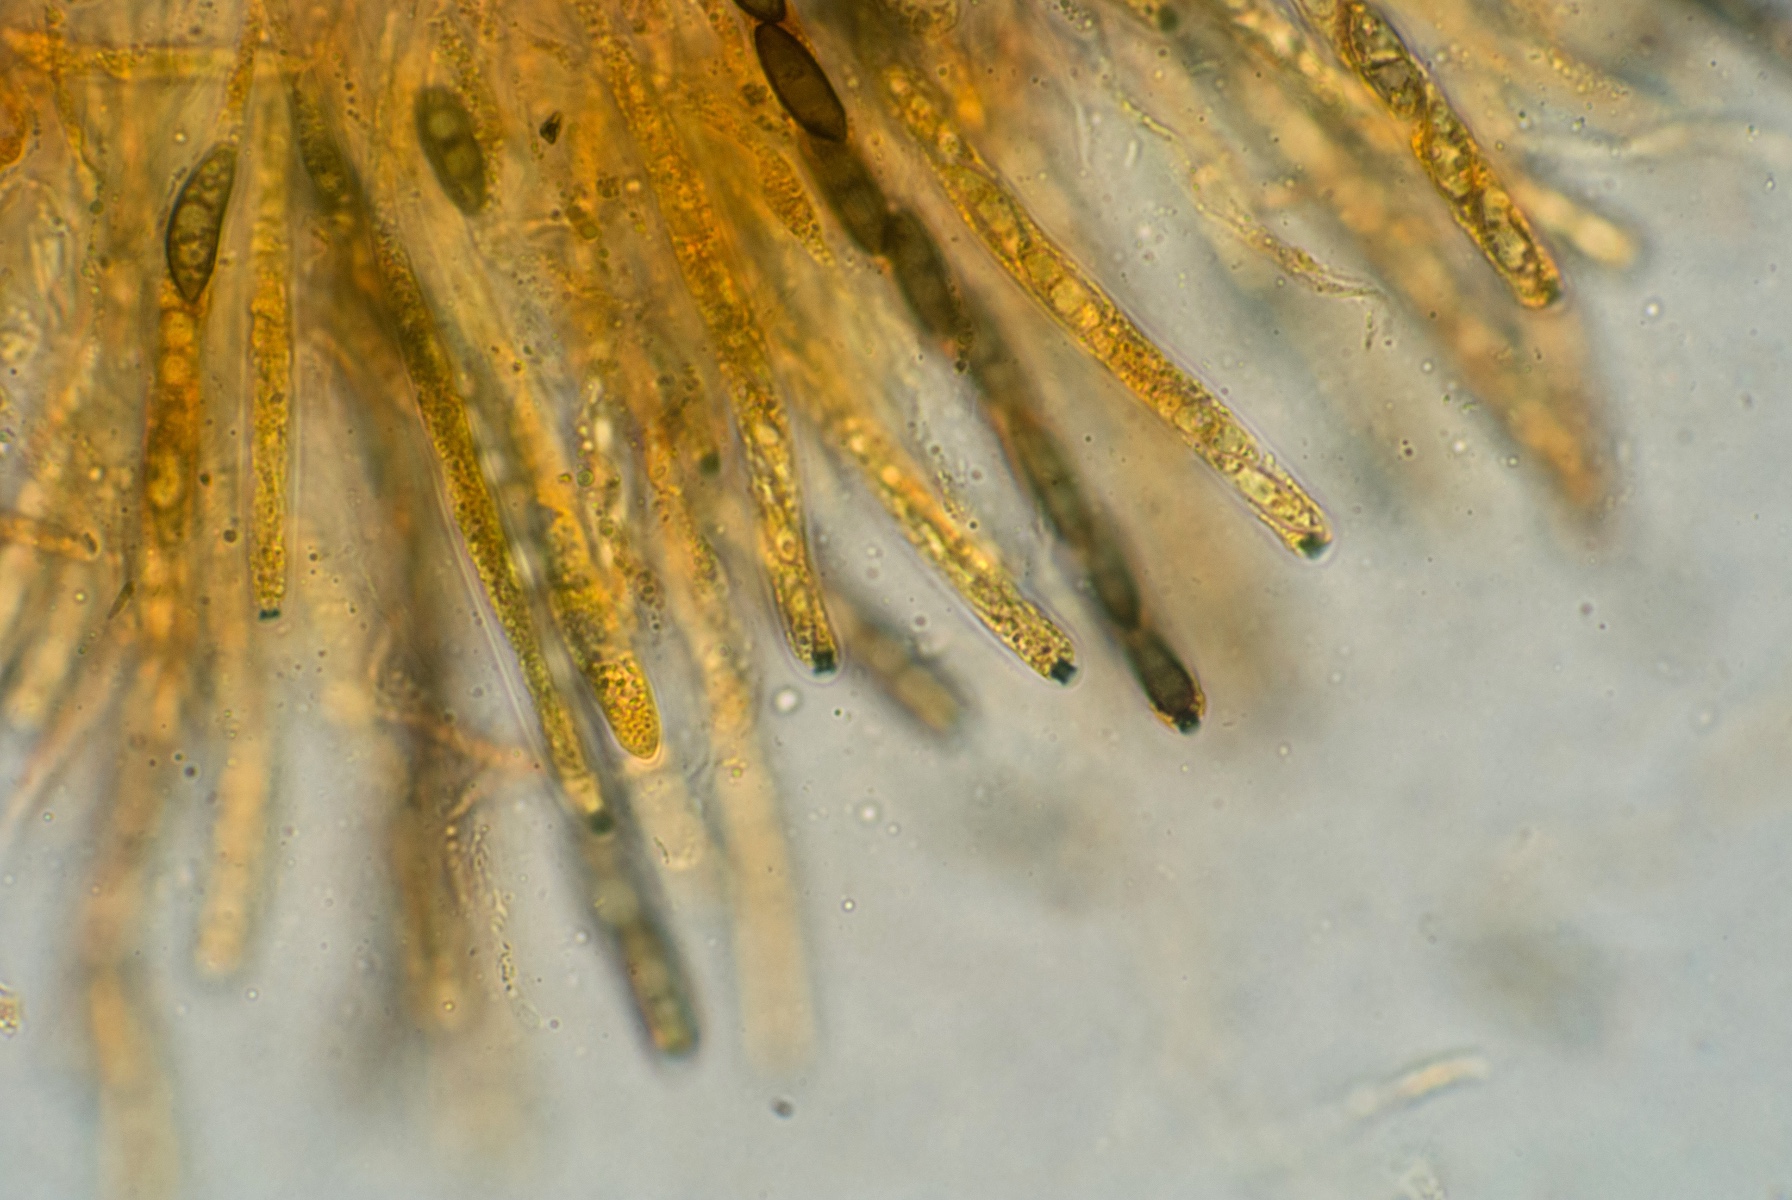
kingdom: Fungi
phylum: Ascomycota
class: Sordariomycetes
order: Xylariales
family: Xylariaceae
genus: Nemania
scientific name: Nemania chestersii
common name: stribesporet kuldyne
